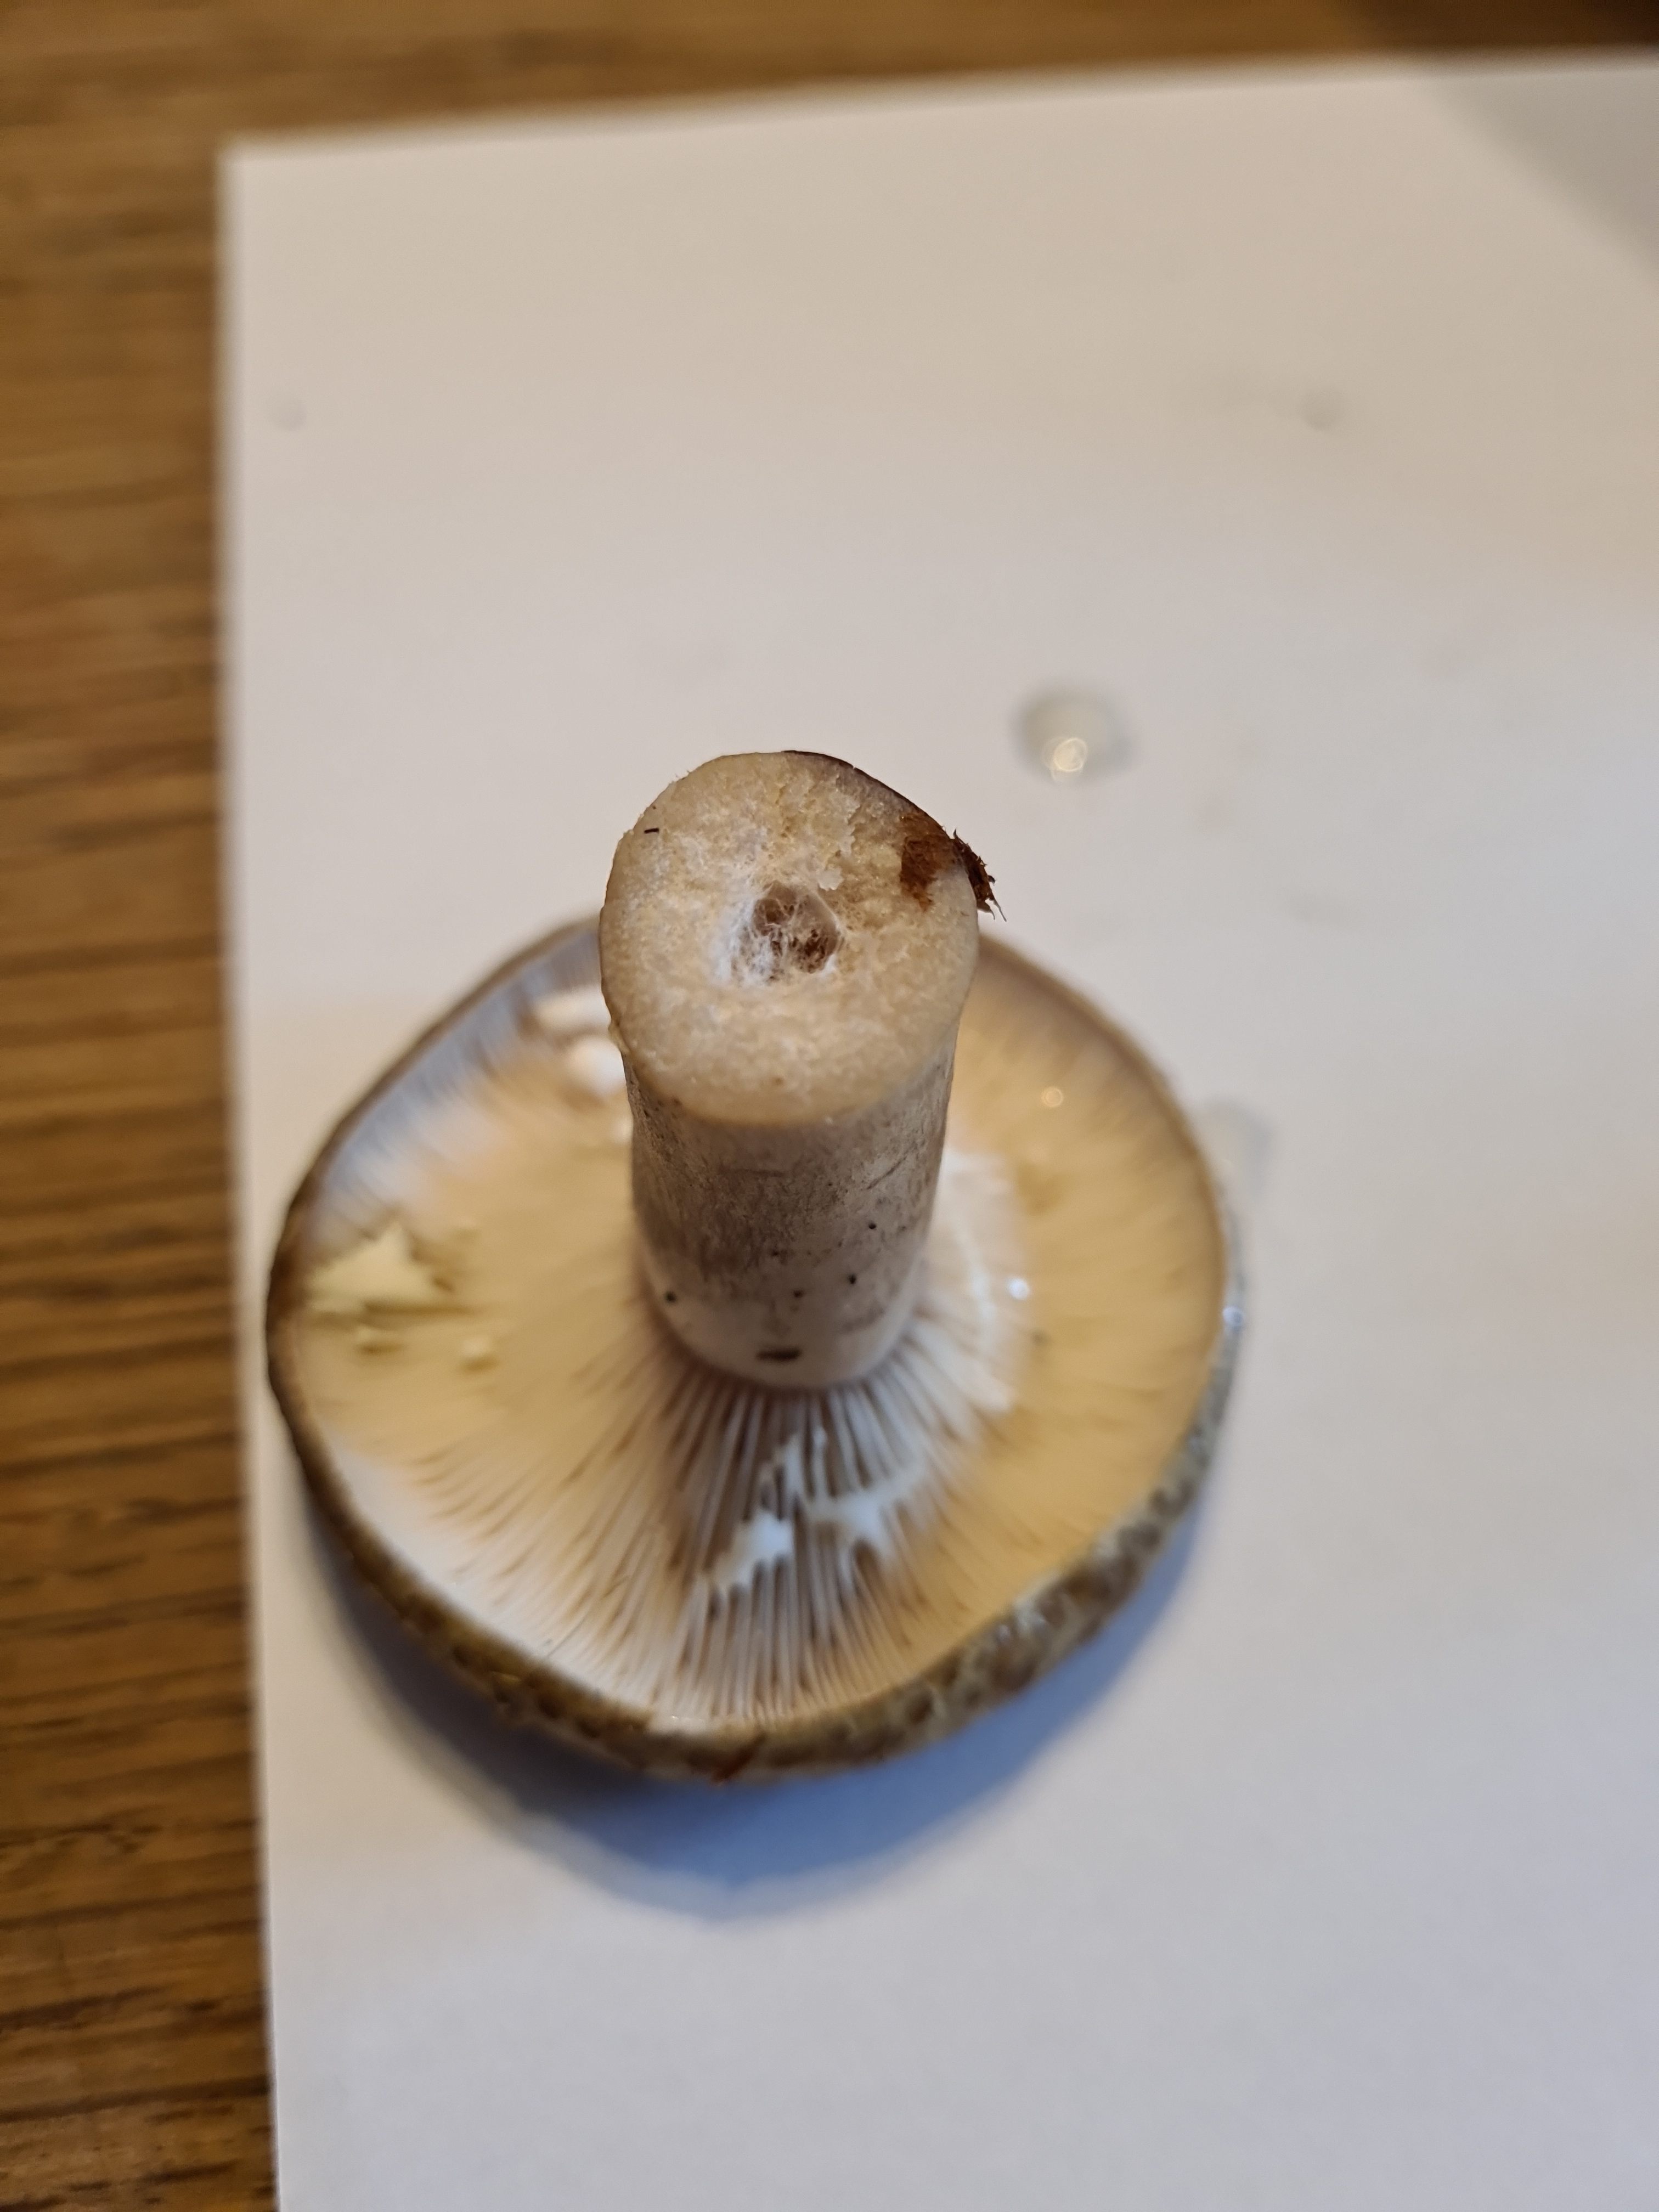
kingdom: Fungi
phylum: Basidiomycota
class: Agaricomycetes
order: Russulales
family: Russulaceae
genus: Lactarius
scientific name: Lactarius blennius
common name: dråbeplettet mælkehat
